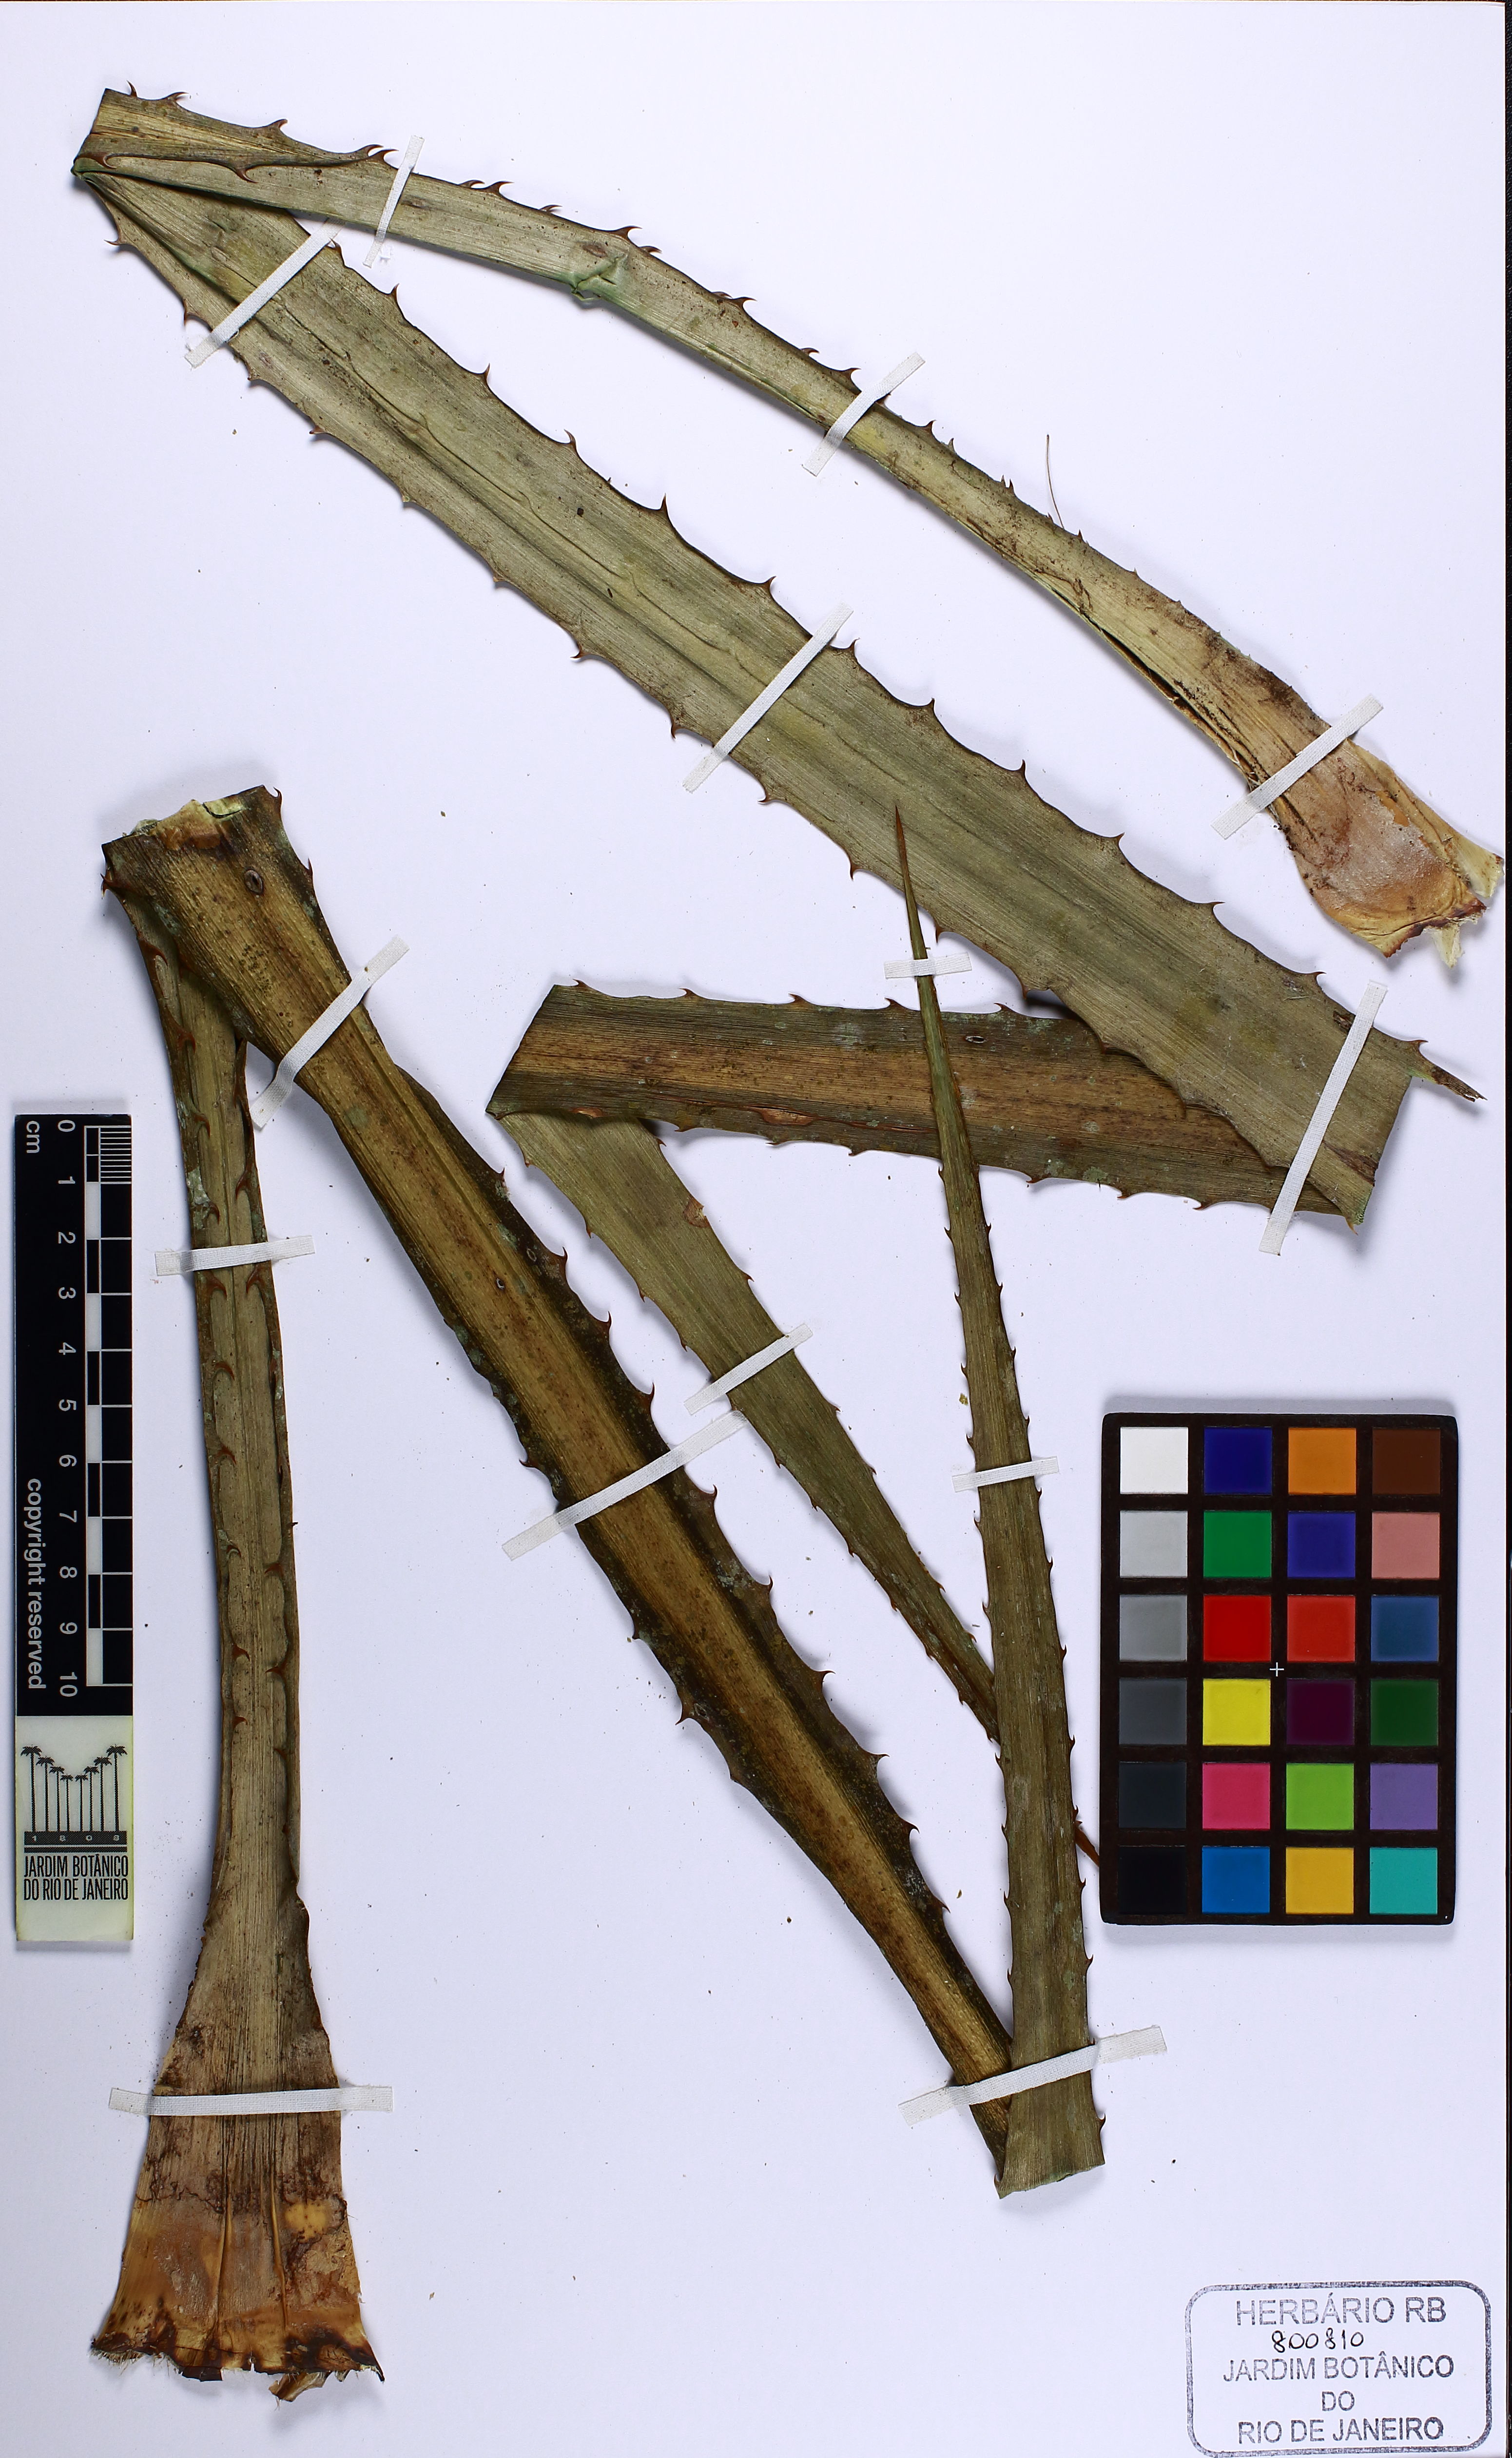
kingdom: Plantae
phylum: Tracheophyta
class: Liliopsida
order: Poales
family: Bromeliaceae
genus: Ananas
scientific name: Ananas comosus
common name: Pineapple
